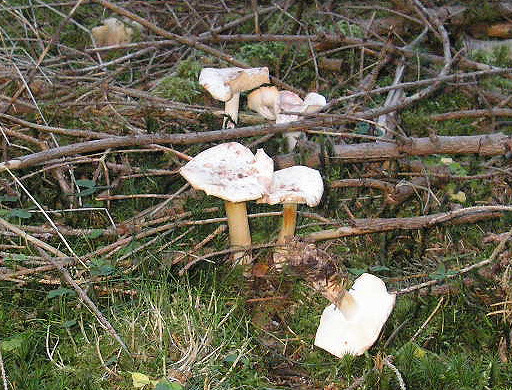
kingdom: Fungi
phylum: Basidiomycota
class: Agaricomycetes
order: Agaricales
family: Omphalotaceae
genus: Rhodocollybia
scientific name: Rhodocollybia maculata
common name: plettet fladhat
